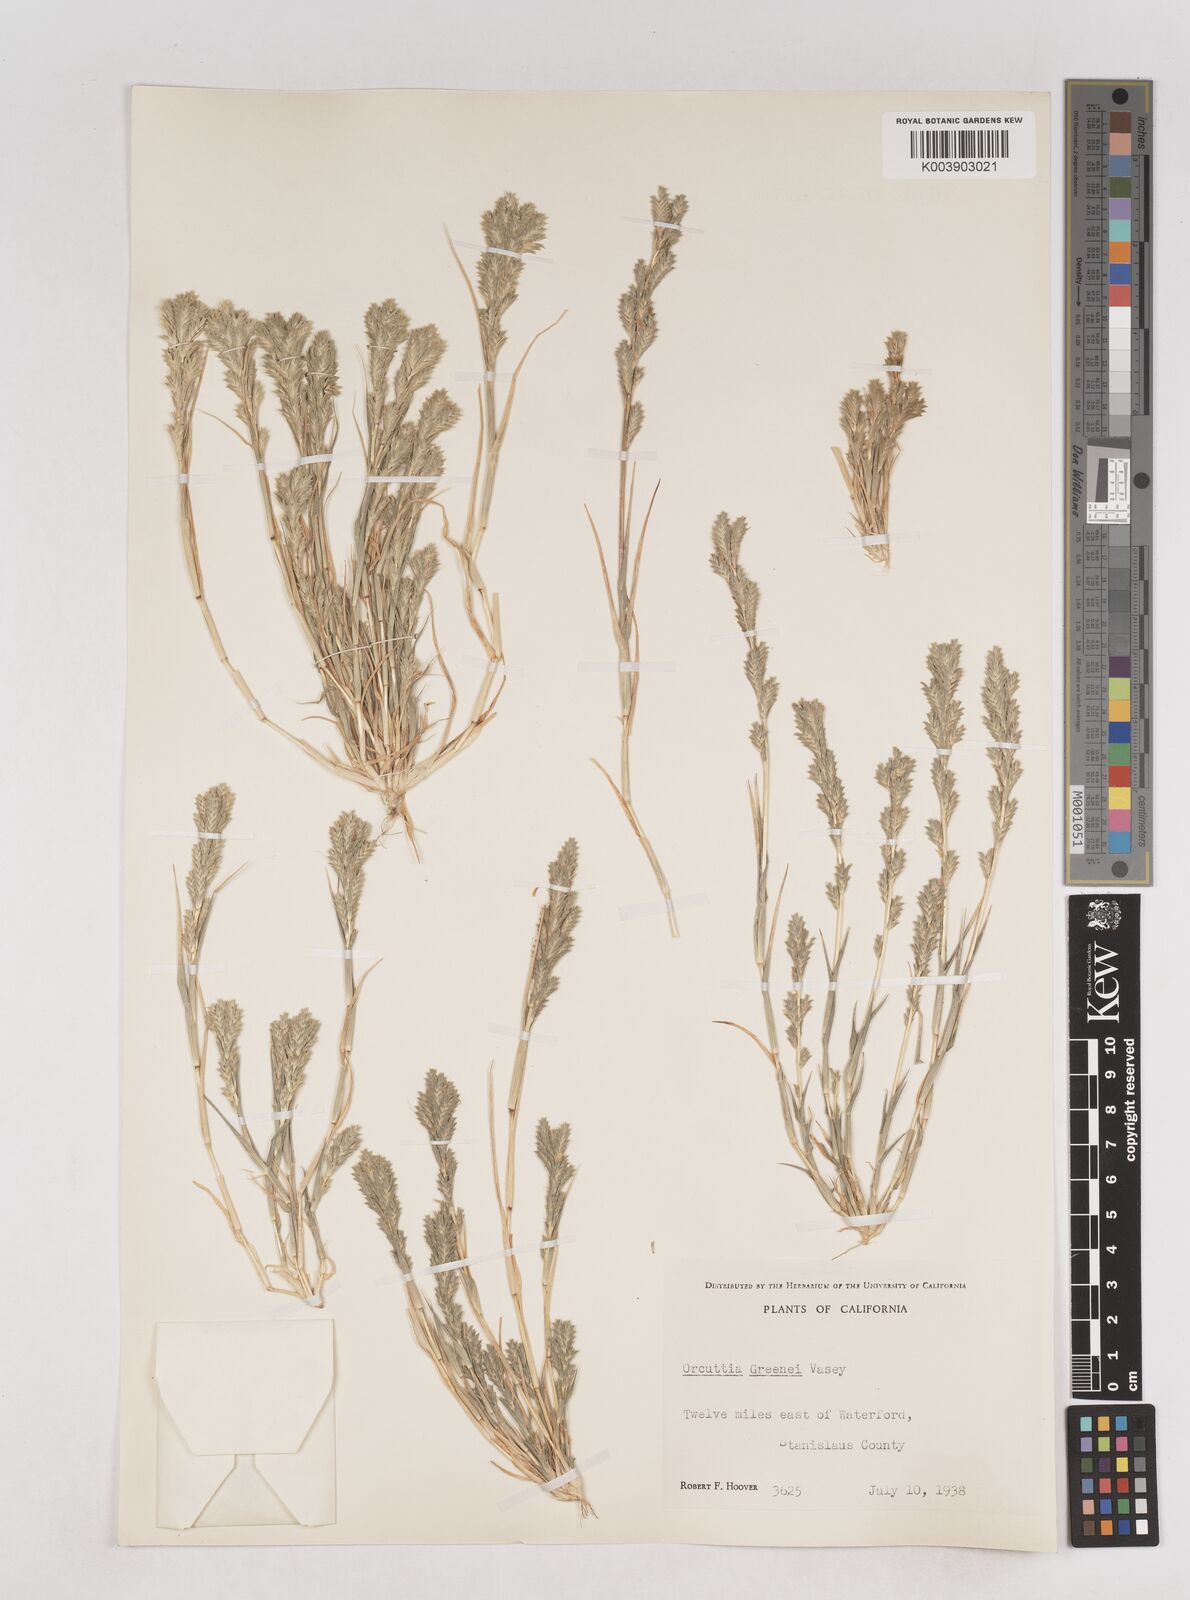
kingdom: Plantae
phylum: Tracheophyta
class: Liliopsida
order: Poales
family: Poaceae
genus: Tuctoria
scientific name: Tuctoria greenei
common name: Awnless spiral grass
